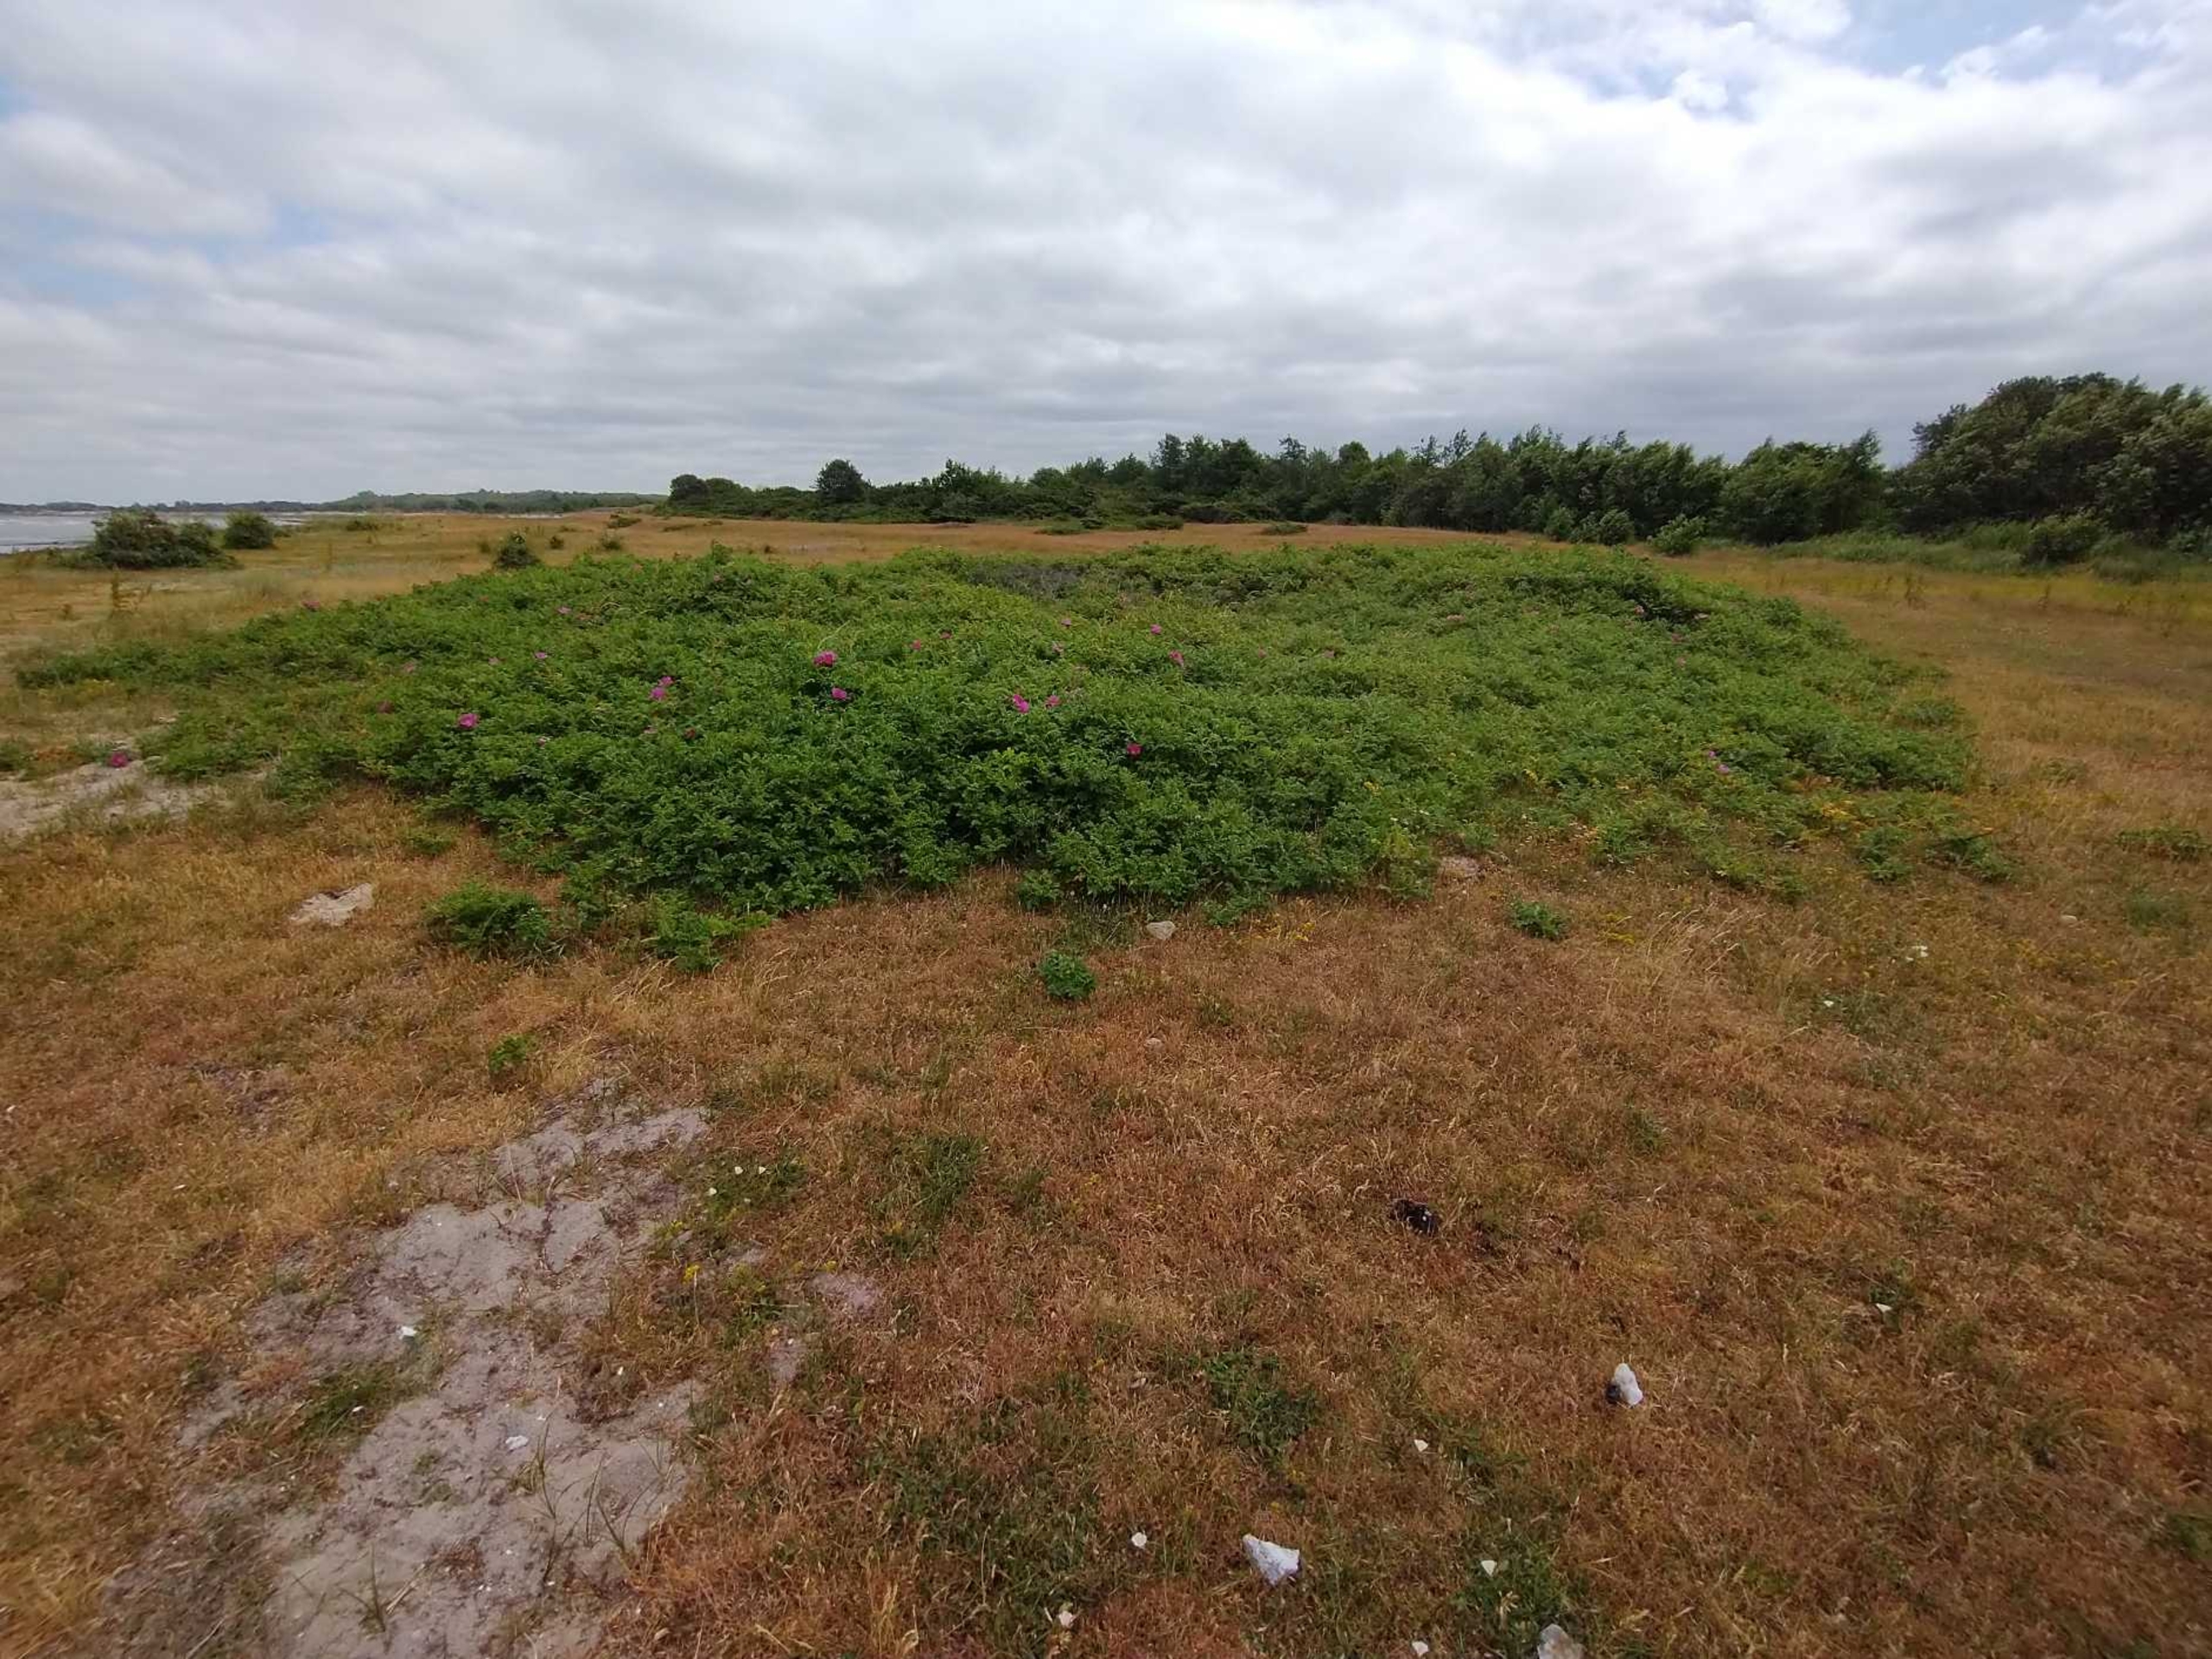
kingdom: Plantae
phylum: Tracheophyta
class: Magnoliopsida
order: Rosales
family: Rosaceae
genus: Rosa
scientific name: Rosa rugosa
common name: Rynket rose
